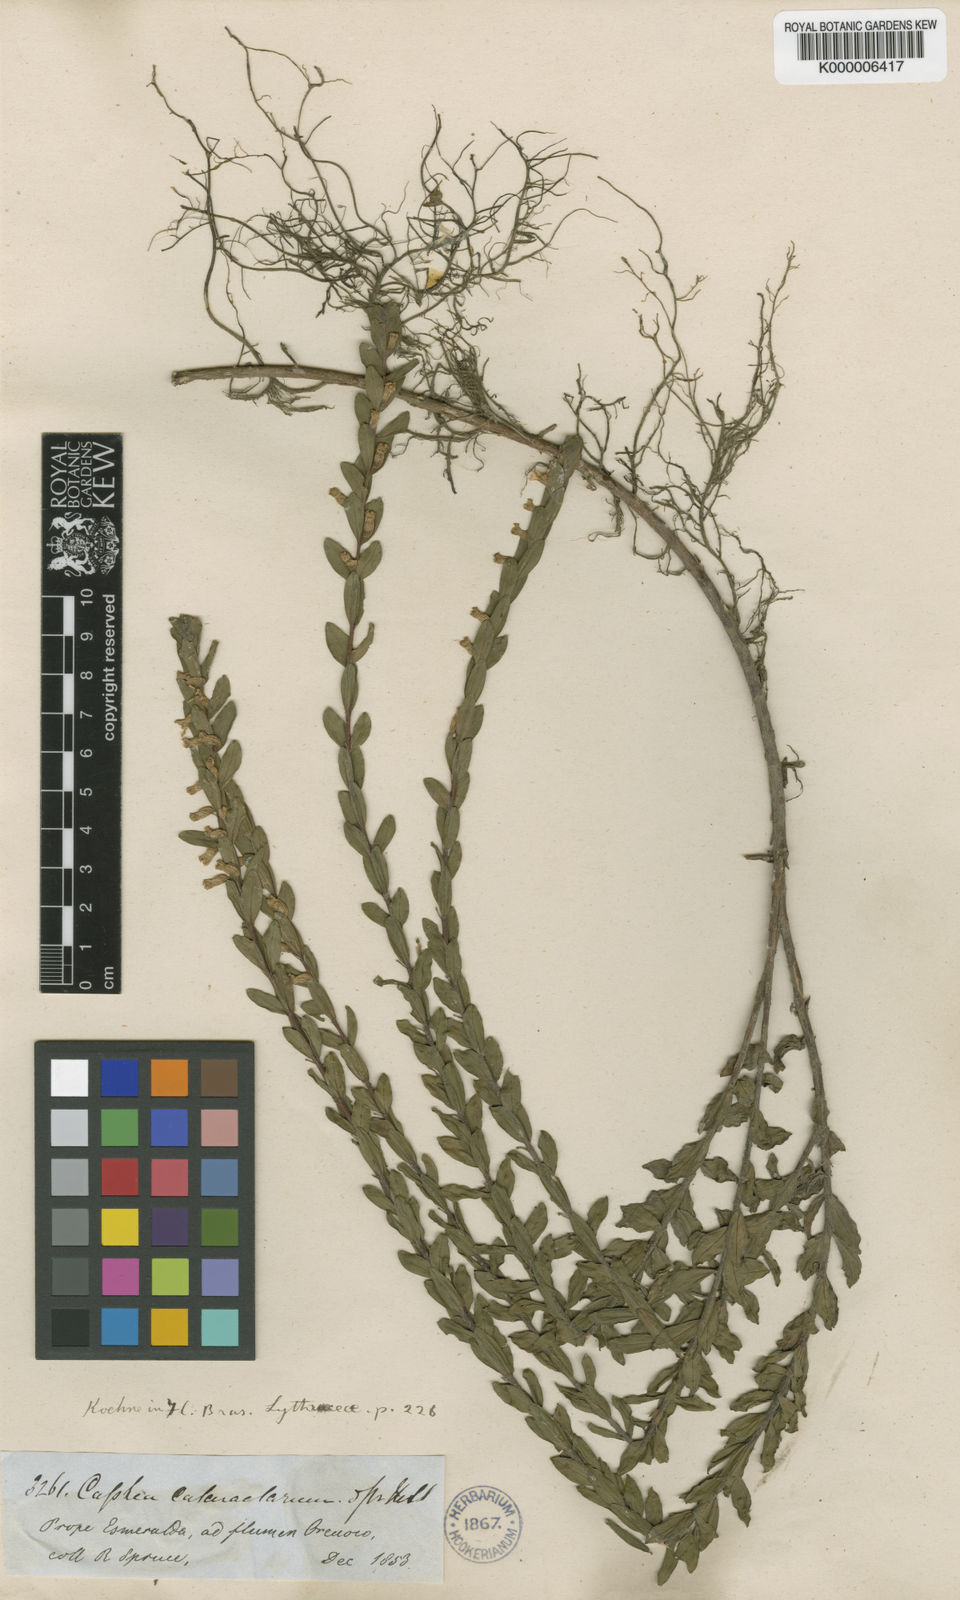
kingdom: Plantae
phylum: Tracheophyta
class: Magnoliopsida
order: Myrtales
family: Lythraceae
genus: Cuphea
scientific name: Cuphea cataractarum
